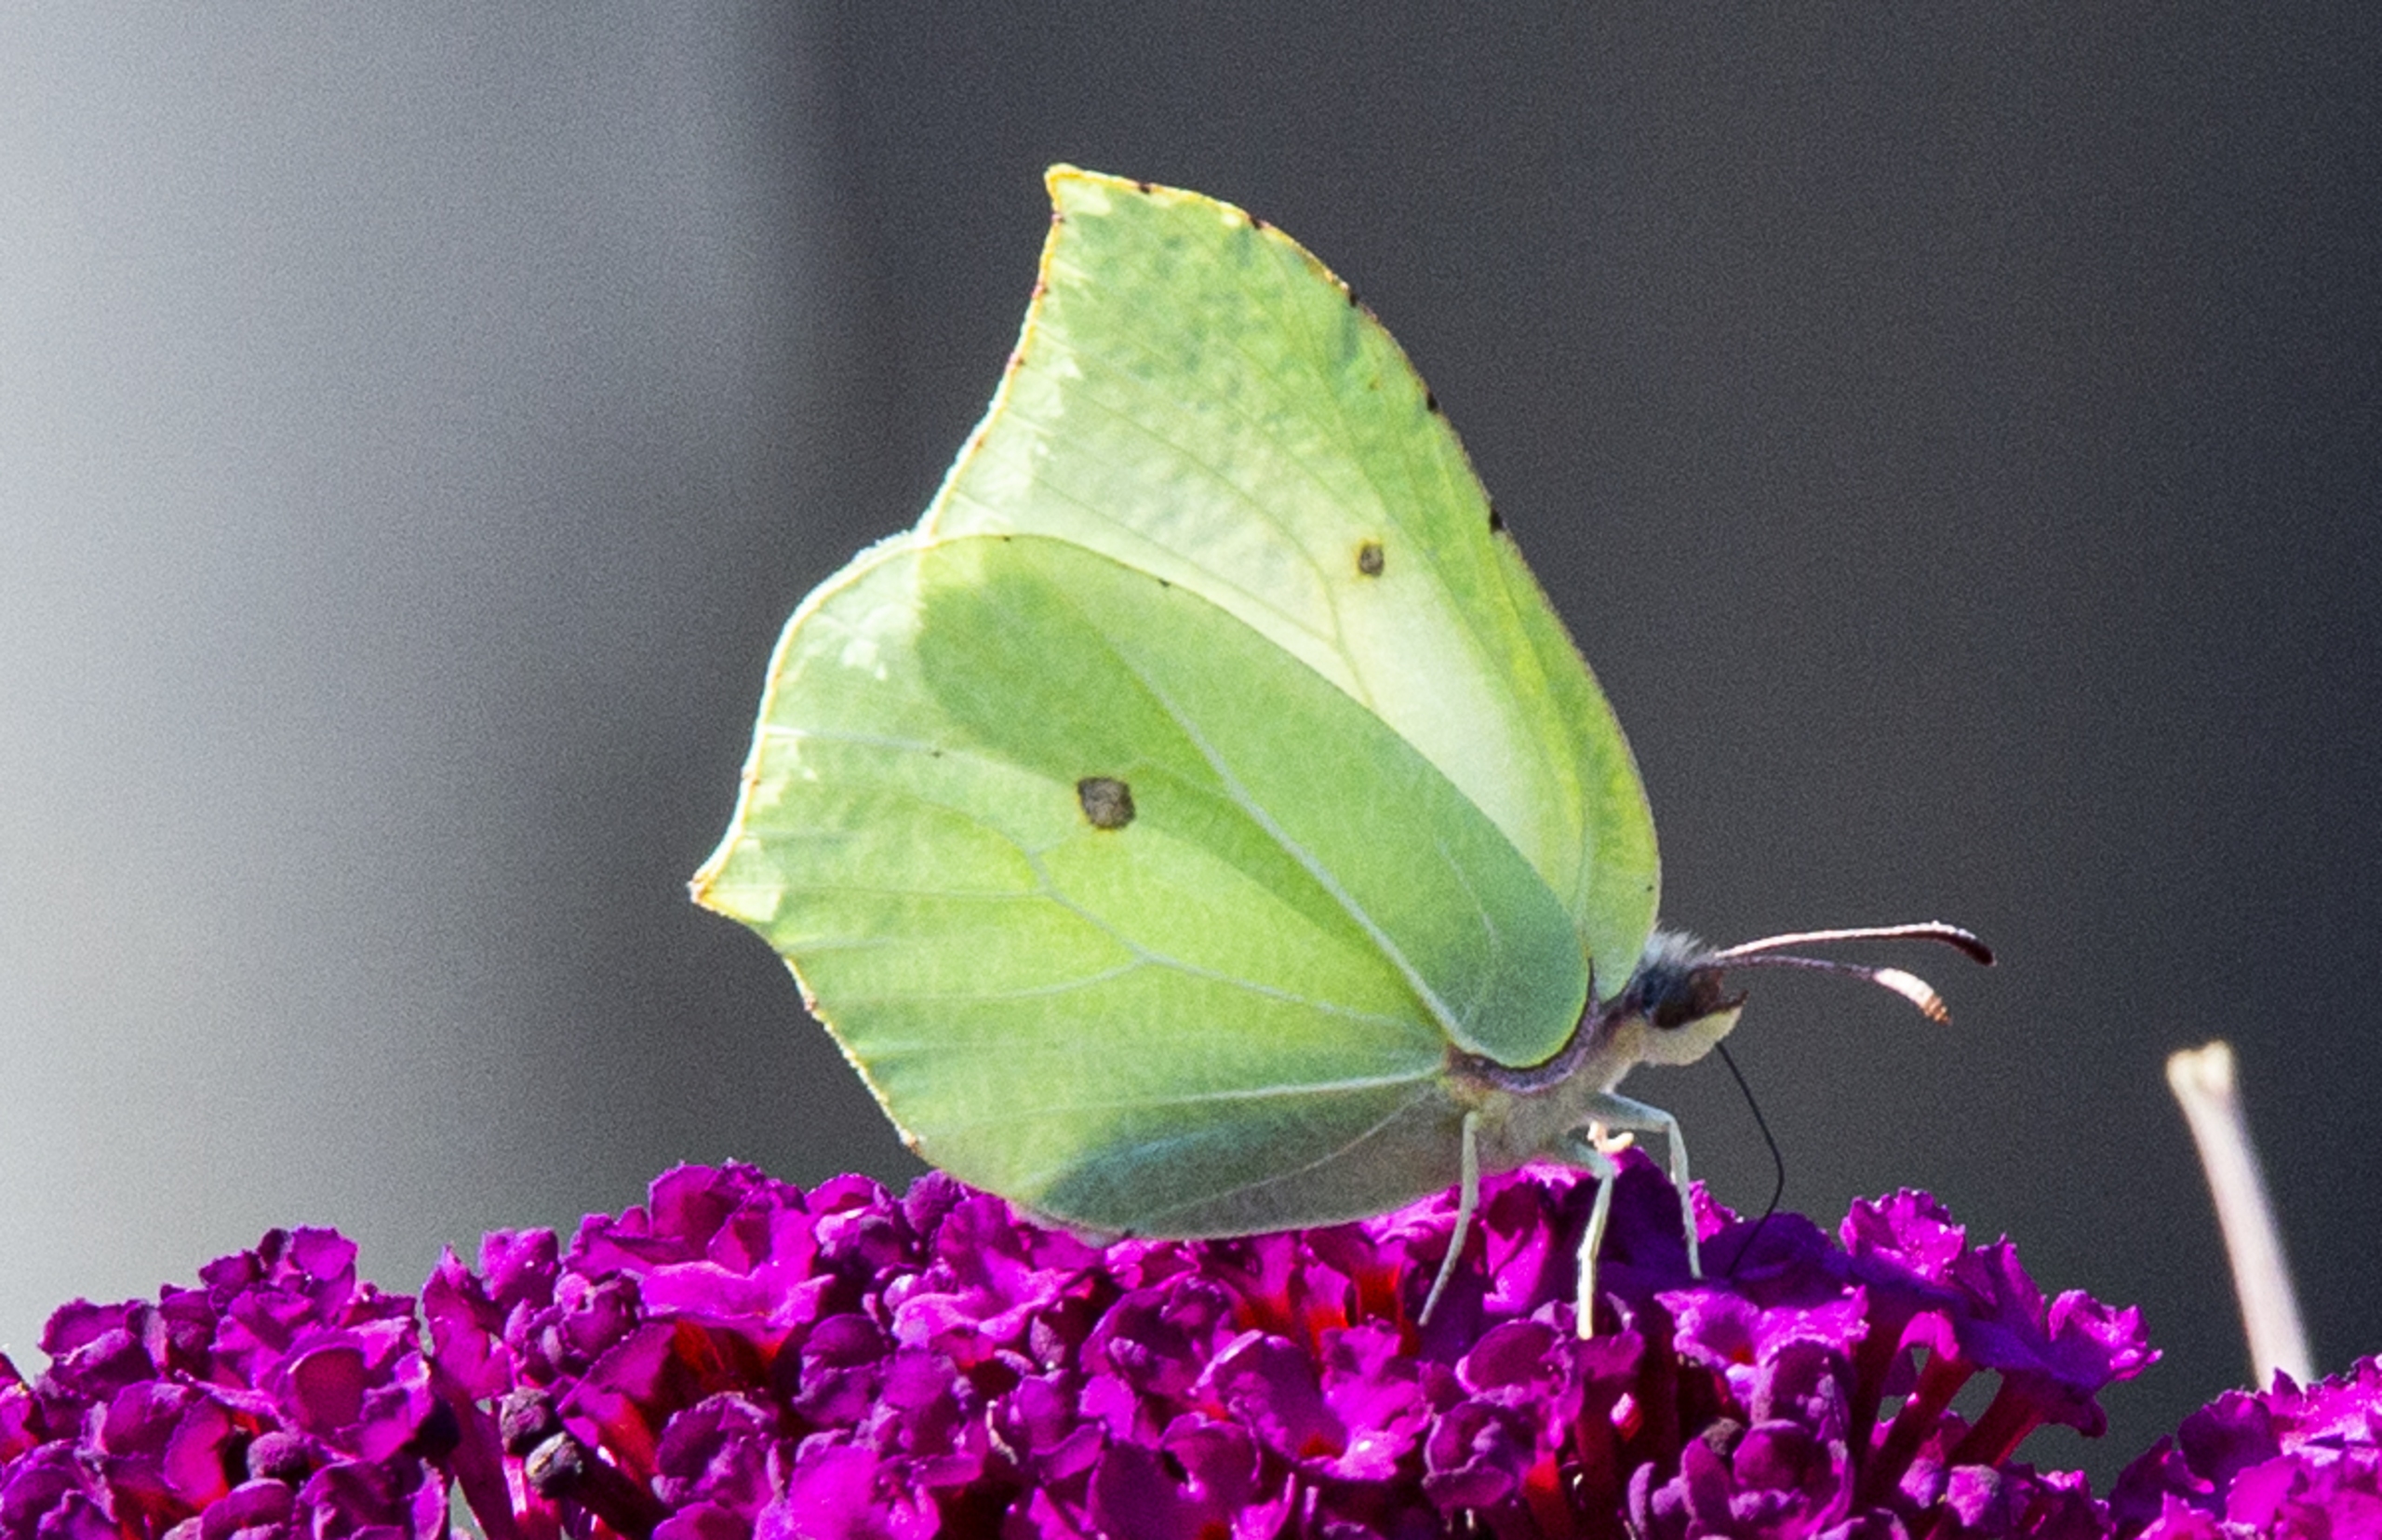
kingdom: Animalia
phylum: Arthropoda
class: Insecta
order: Lepidoptera
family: Pieridae
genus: Gonepteryx
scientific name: Gonepteryx rhamni
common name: Citronsommerfugl
